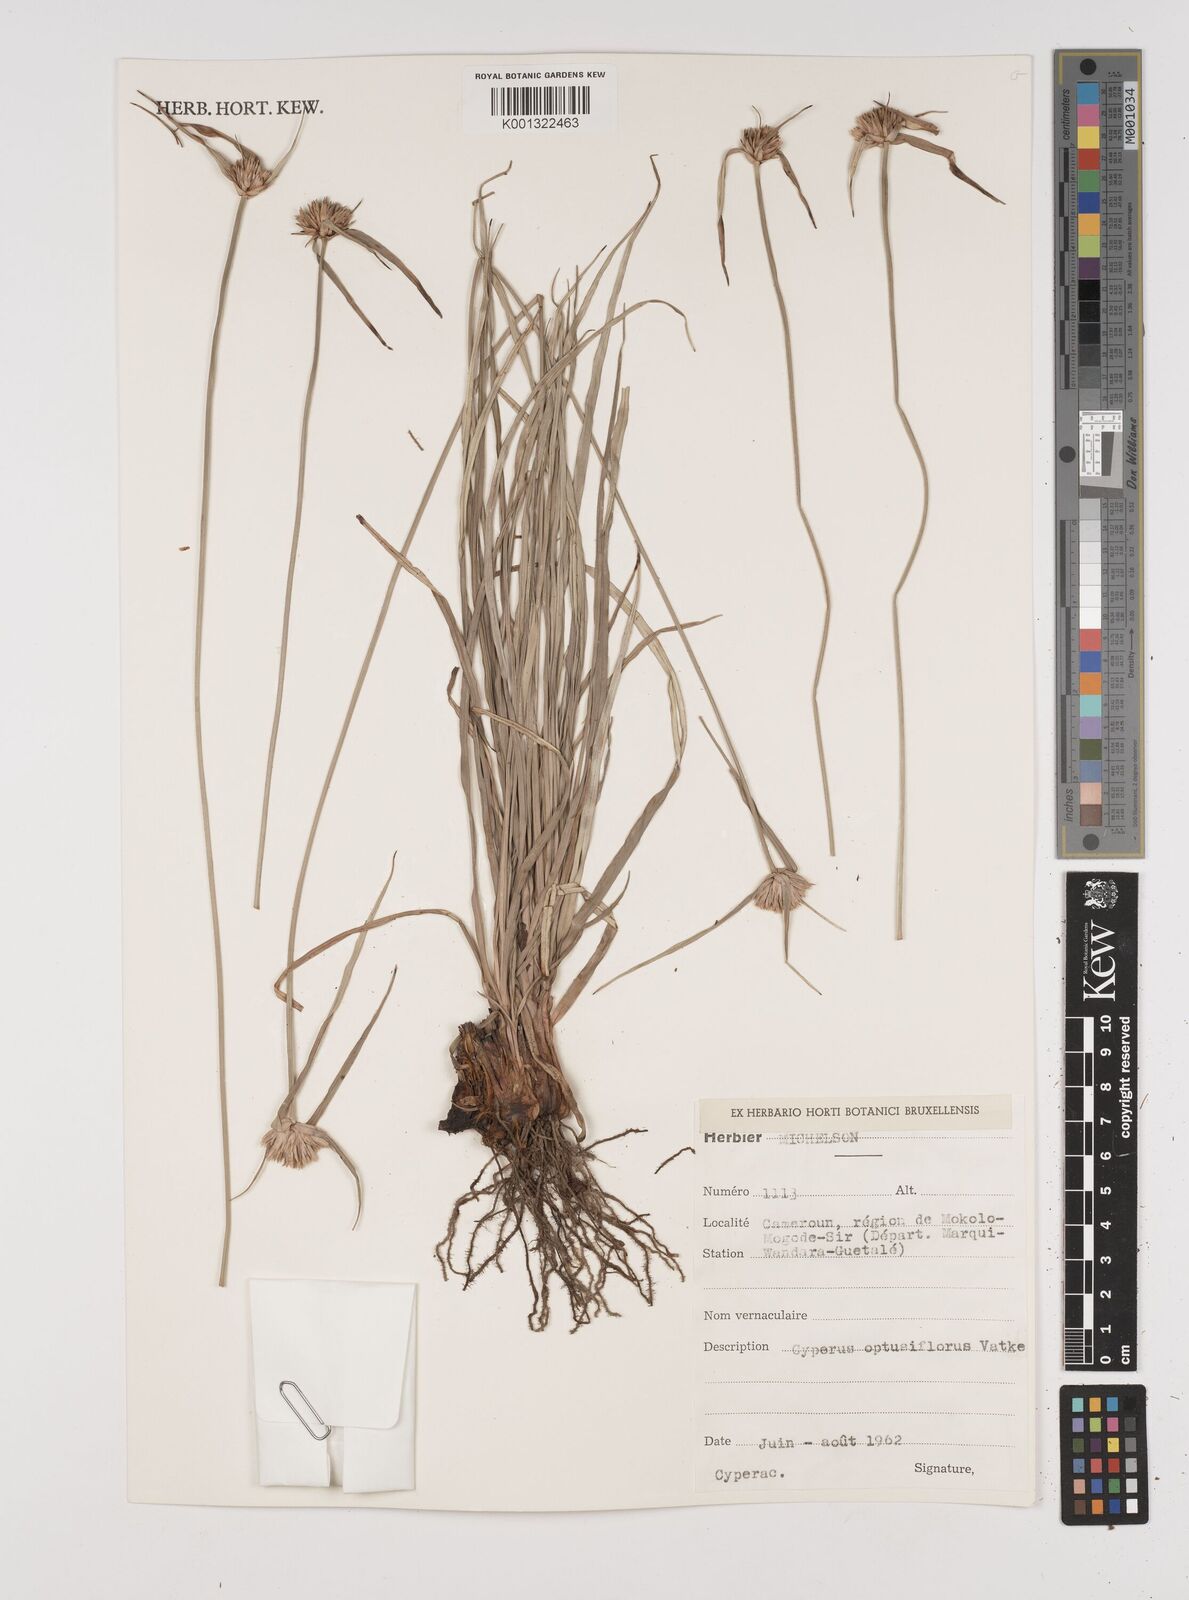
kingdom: Plantae
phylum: Tracheophyta
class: Liliopsida
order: Poales
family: Cyperaceae
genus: Cyperus
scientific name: Cyperus niveus
